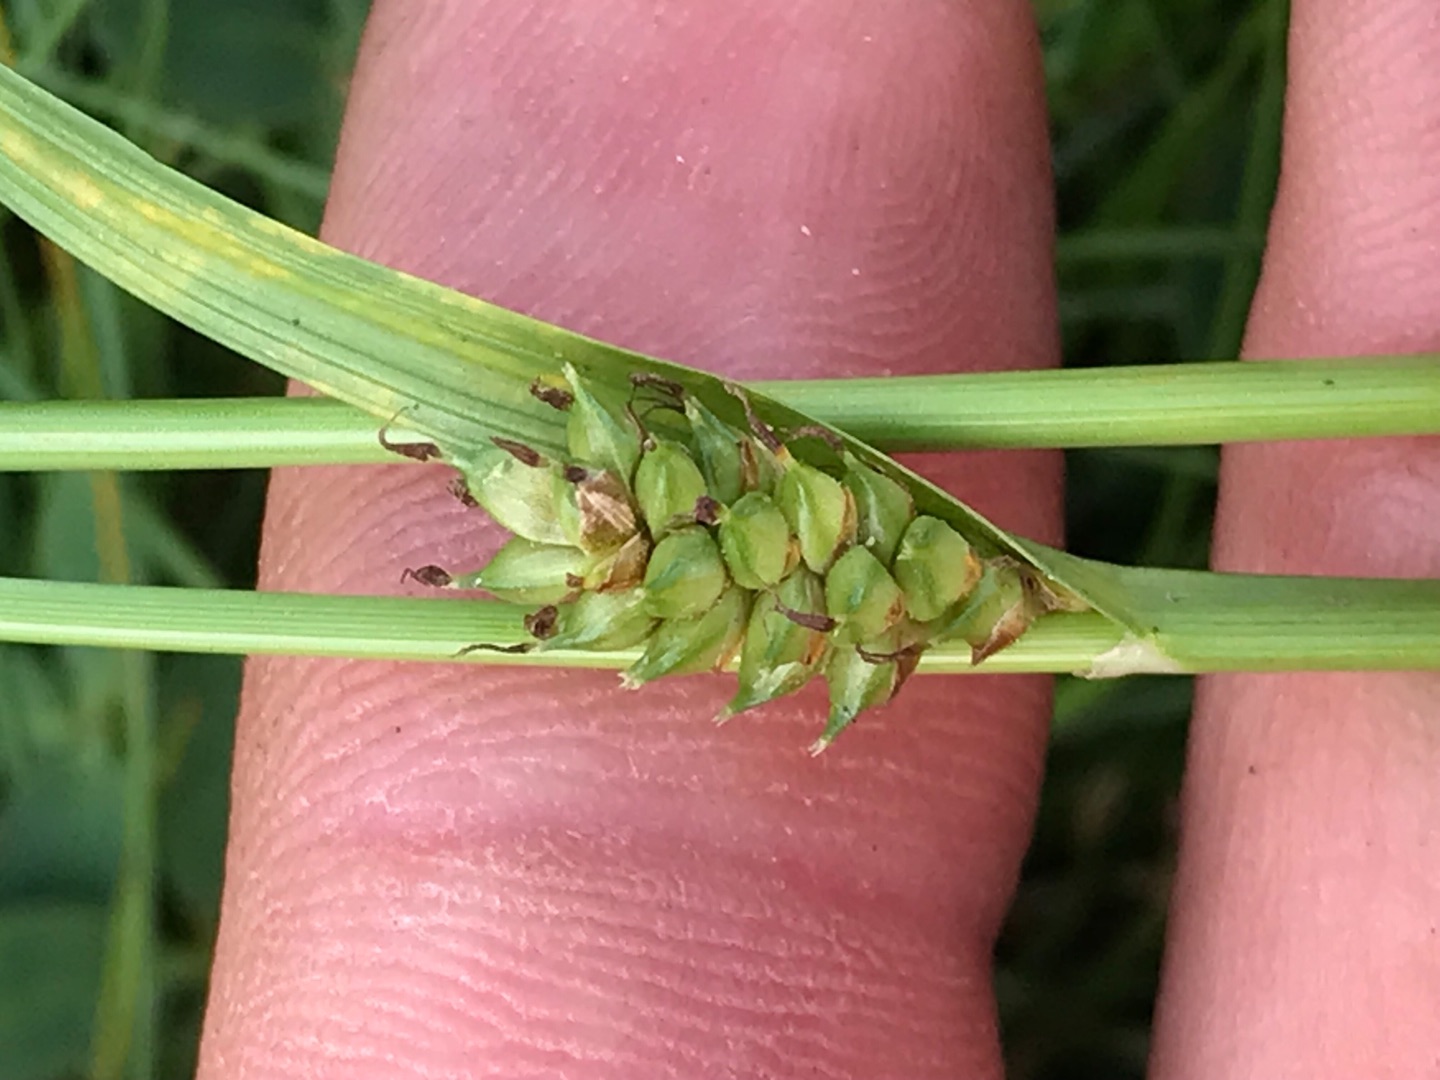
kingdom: Plantae
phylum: Tracheophyta
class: Liliopsida
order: Poales
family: Cyperaceae
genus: Carex
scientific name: Carex distans
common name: Fjernakset star
